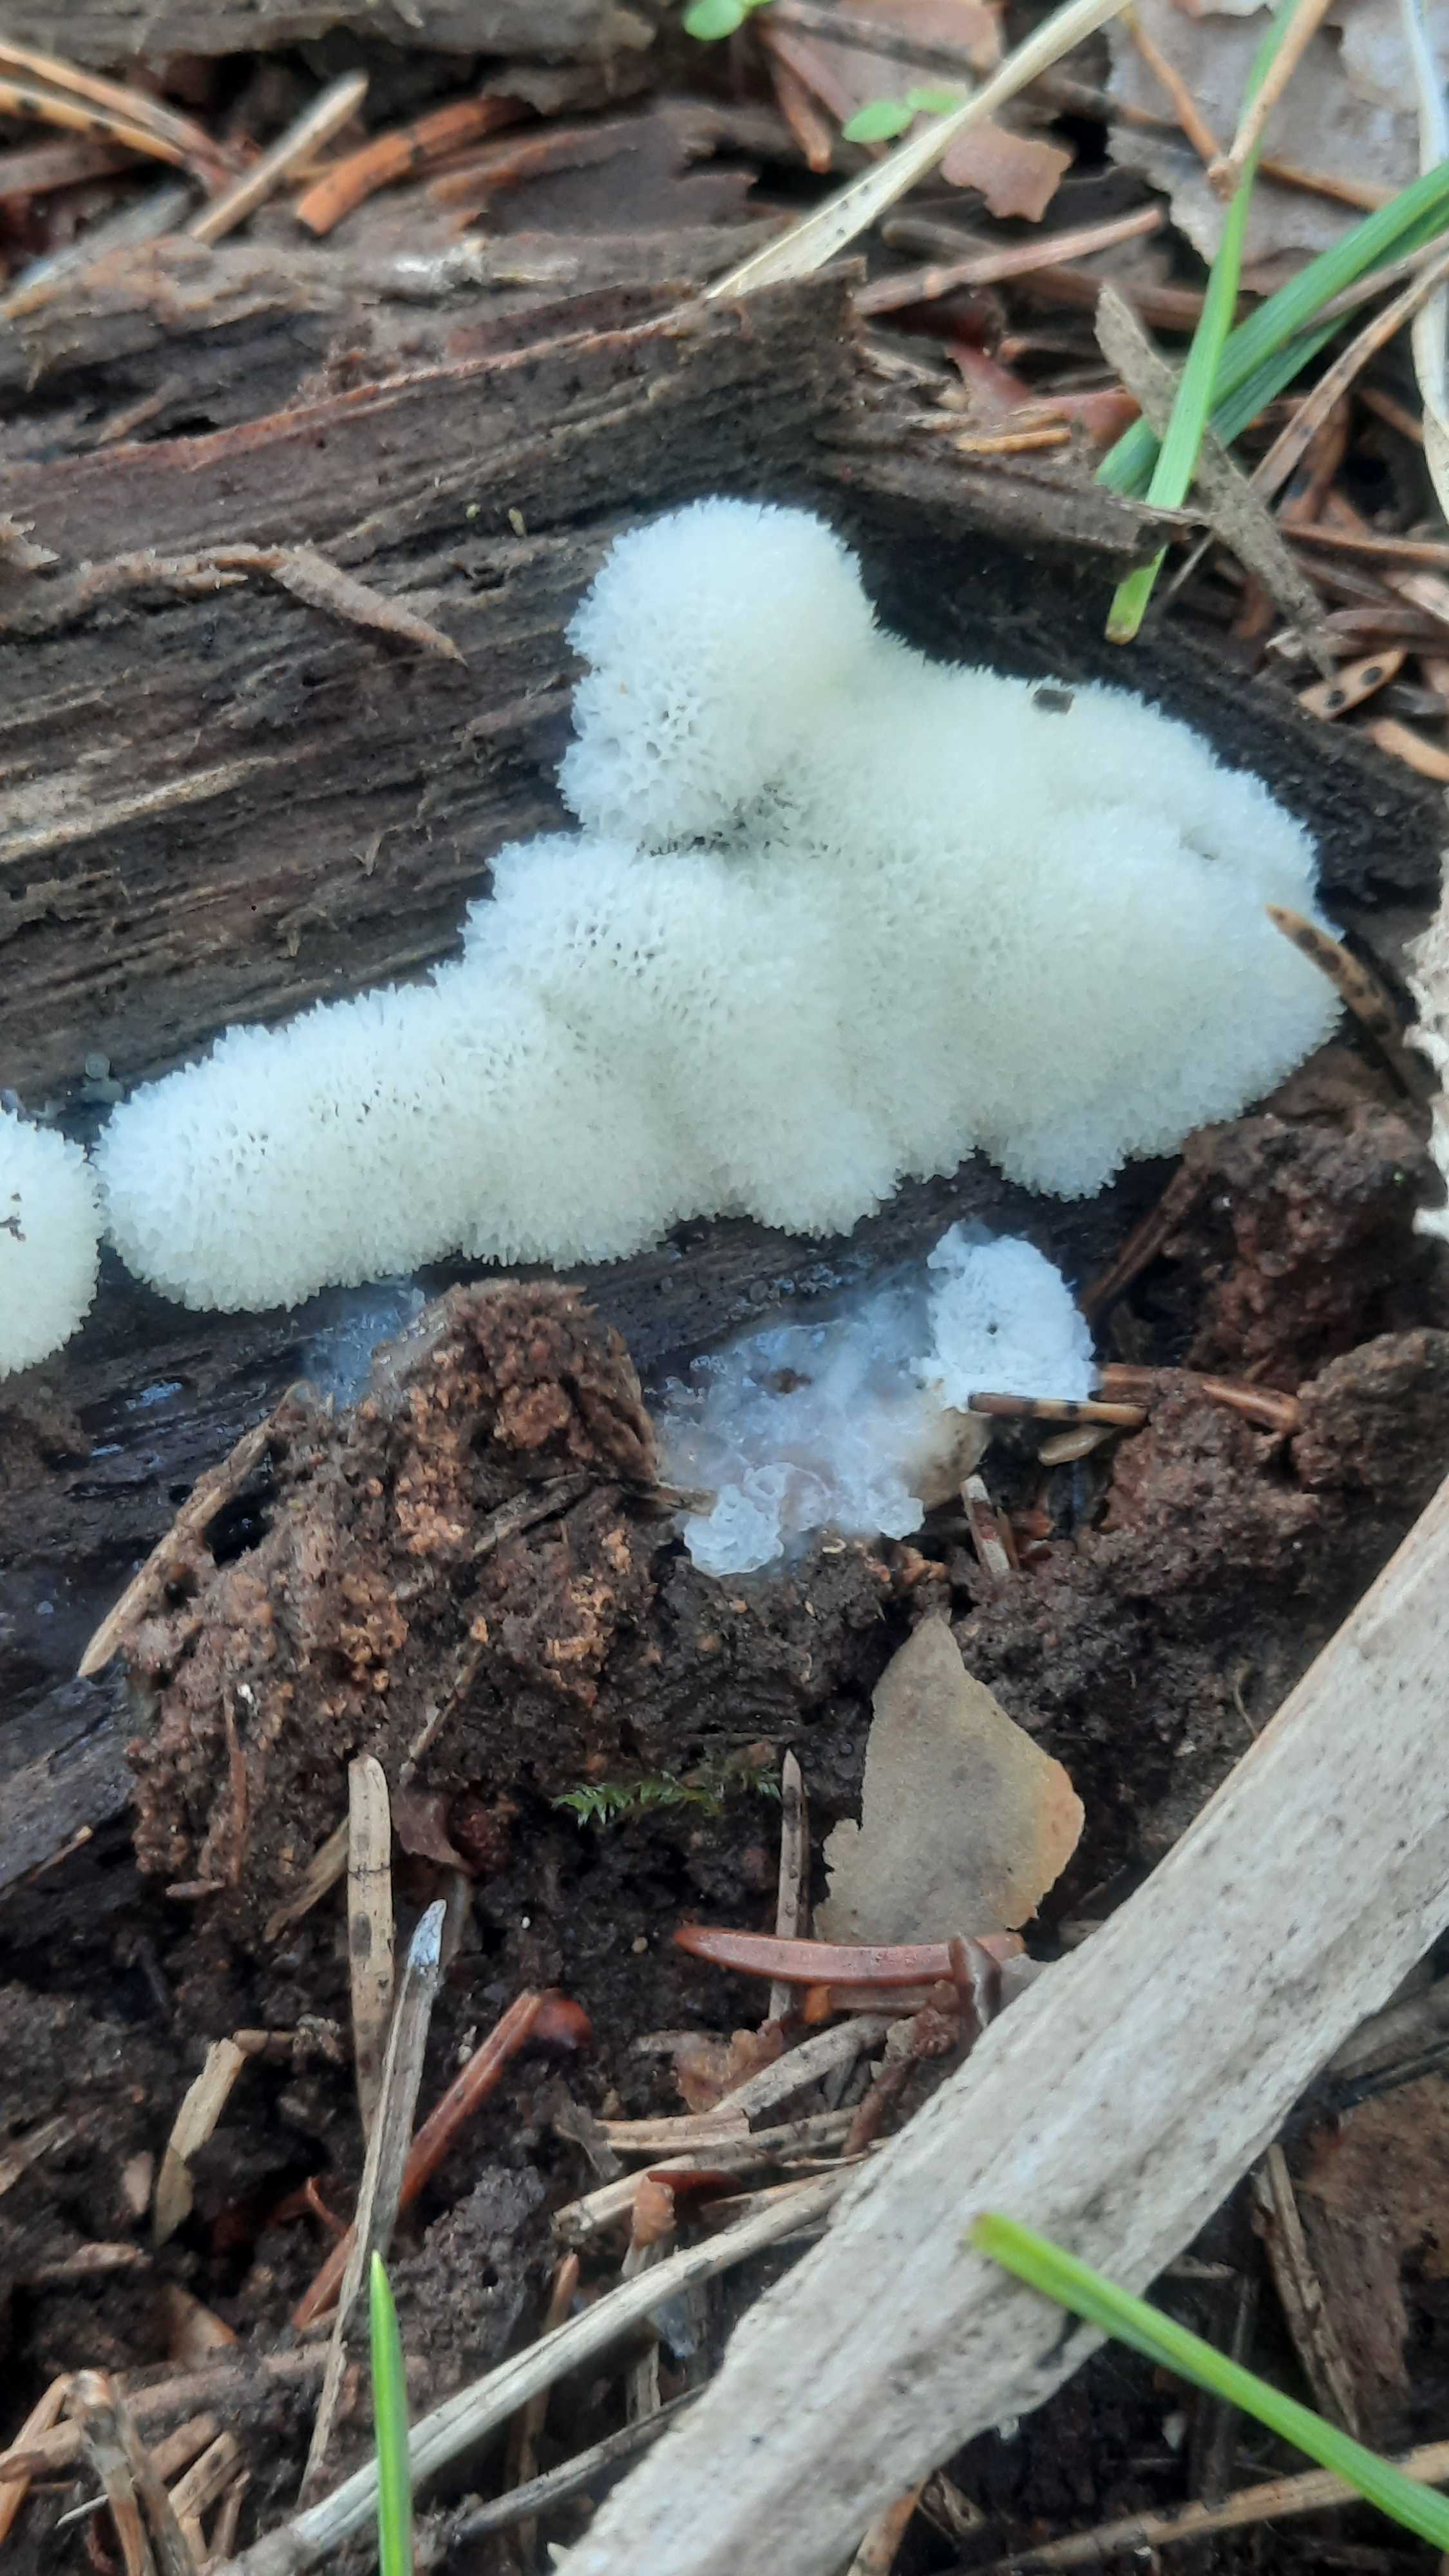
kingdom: Protozoa
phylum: Mycetozoa
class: Protosteliomycetes
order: Ceratiomyxales
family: Ceratiomyxaceae
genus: Ceratiomyxa
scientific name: Ceratiomyxa fruticulosa
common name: Honeycomb coral slime mold
